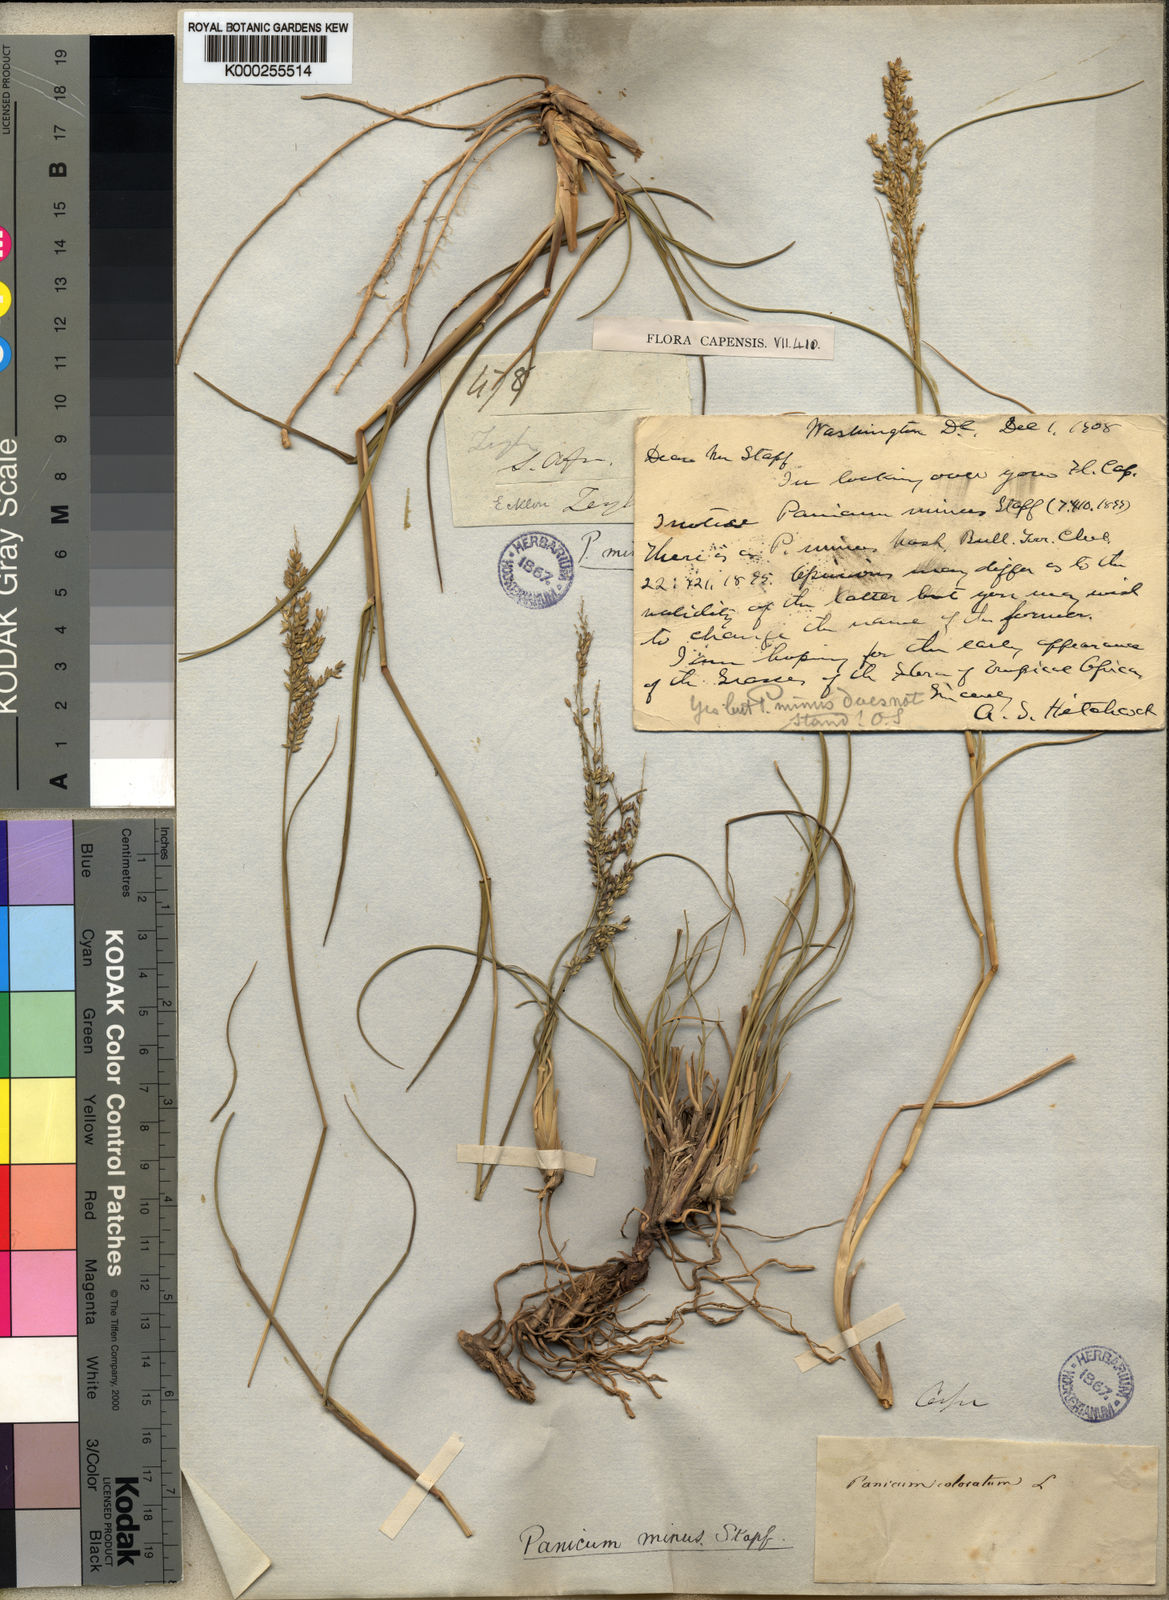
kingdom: Plantae
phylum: Tracheophyta
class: Liliopsida
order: Poales
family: Poaceae
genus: Panicum
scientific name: Panicum stapfianum
